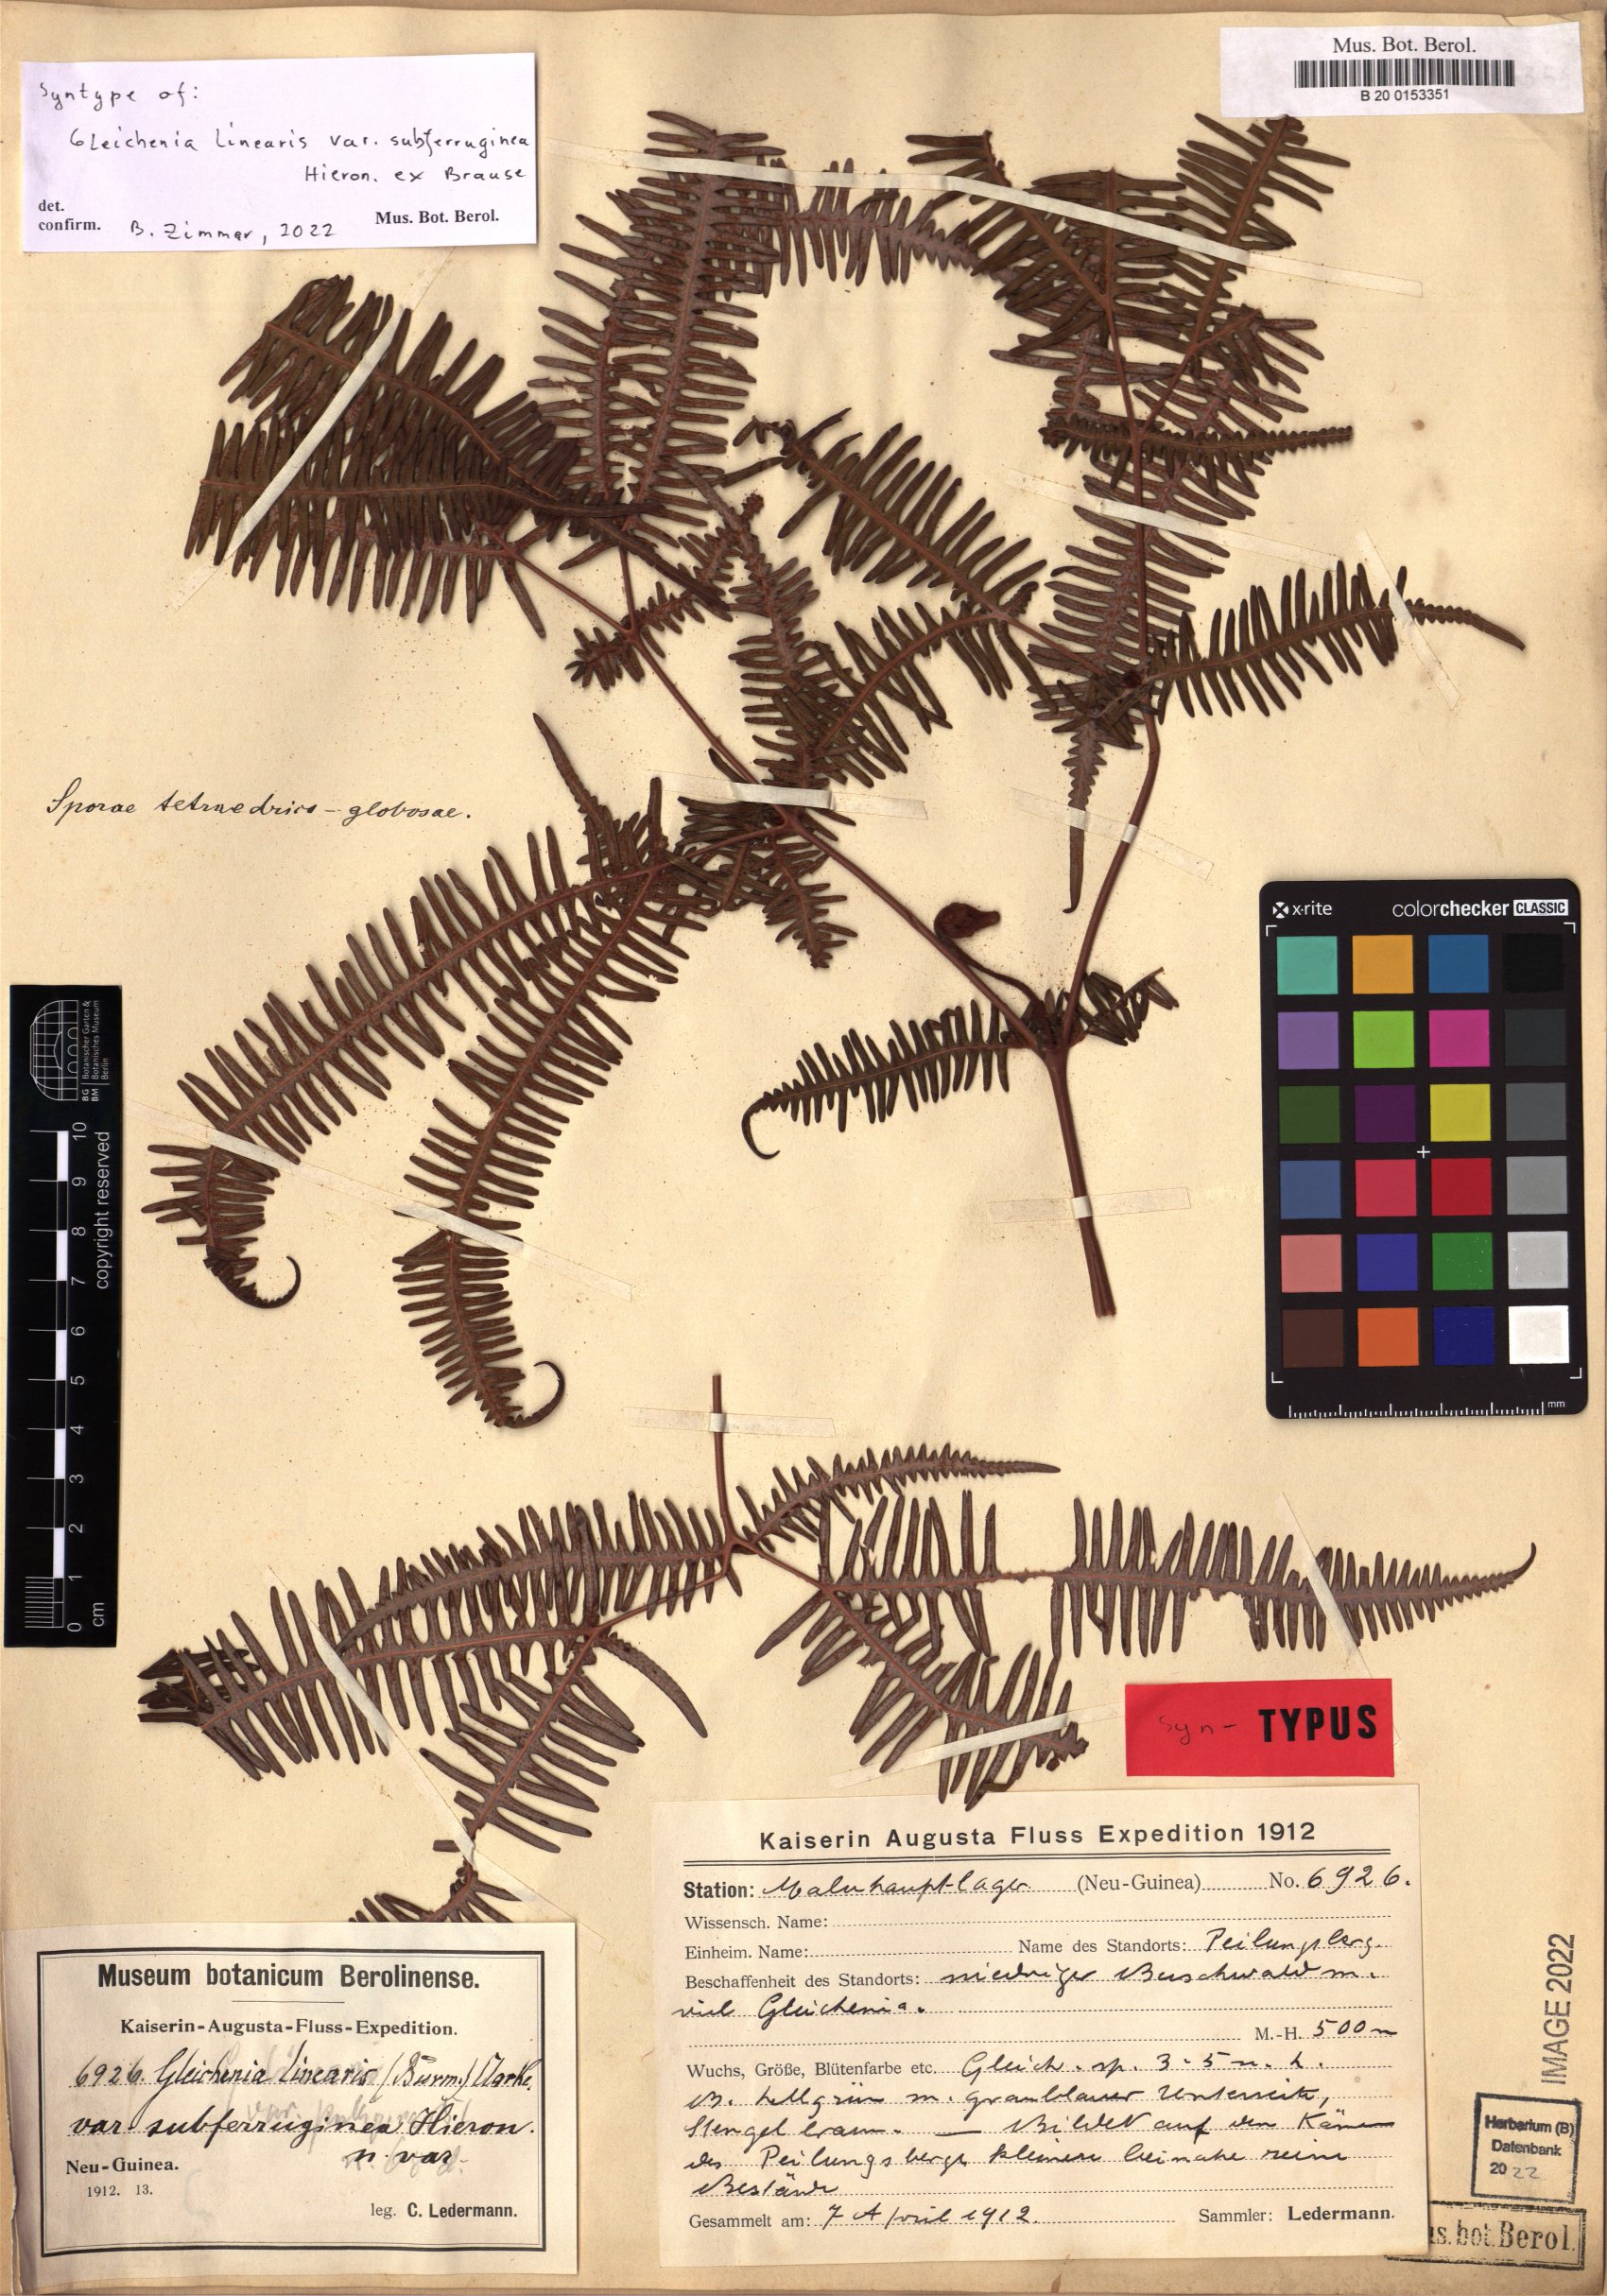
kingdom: Plantae
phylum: Tracheophyta
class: Polypodiopsida
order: Gleicheniales
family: Gleicheniaceae
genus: Dicranopteris
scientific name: Dicranopteris linearis
